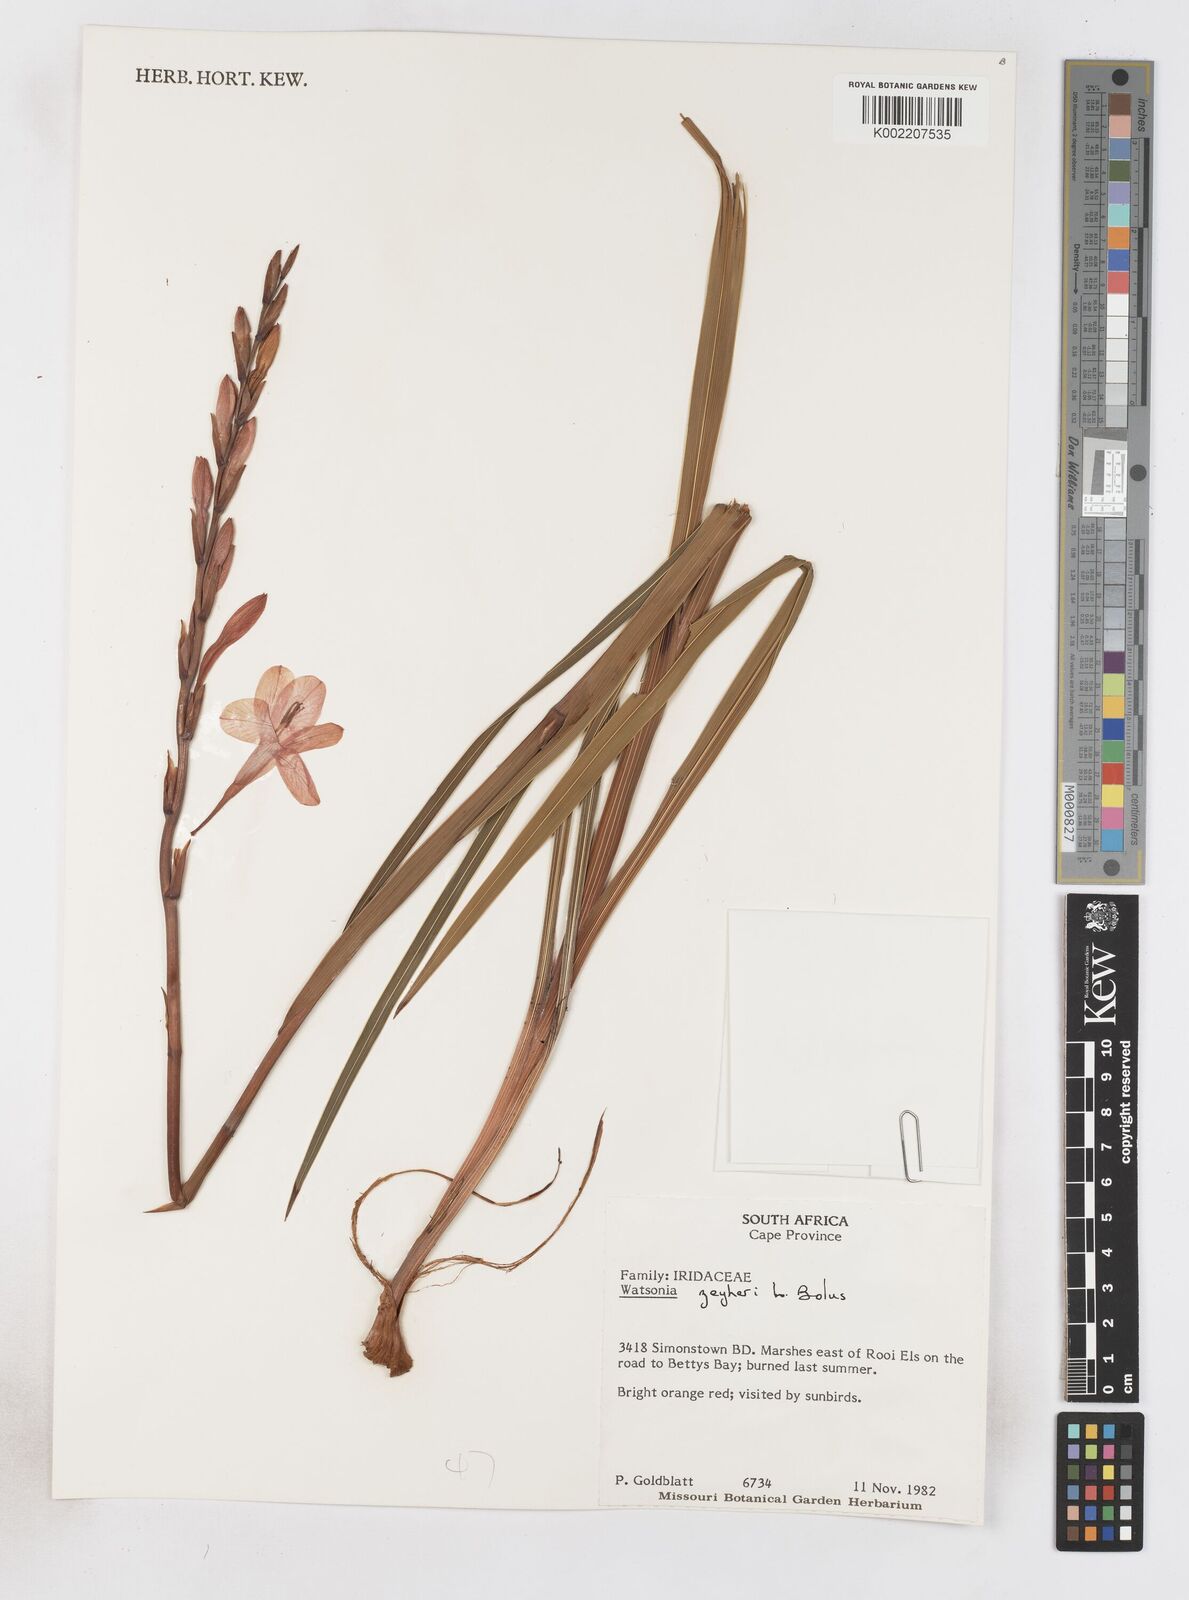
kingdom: Plantae
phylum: Tracheophyta
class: Liliopsida
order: Asparagales
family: Iridaceae
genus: Watsonia
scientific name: Watsonia zeyheri
